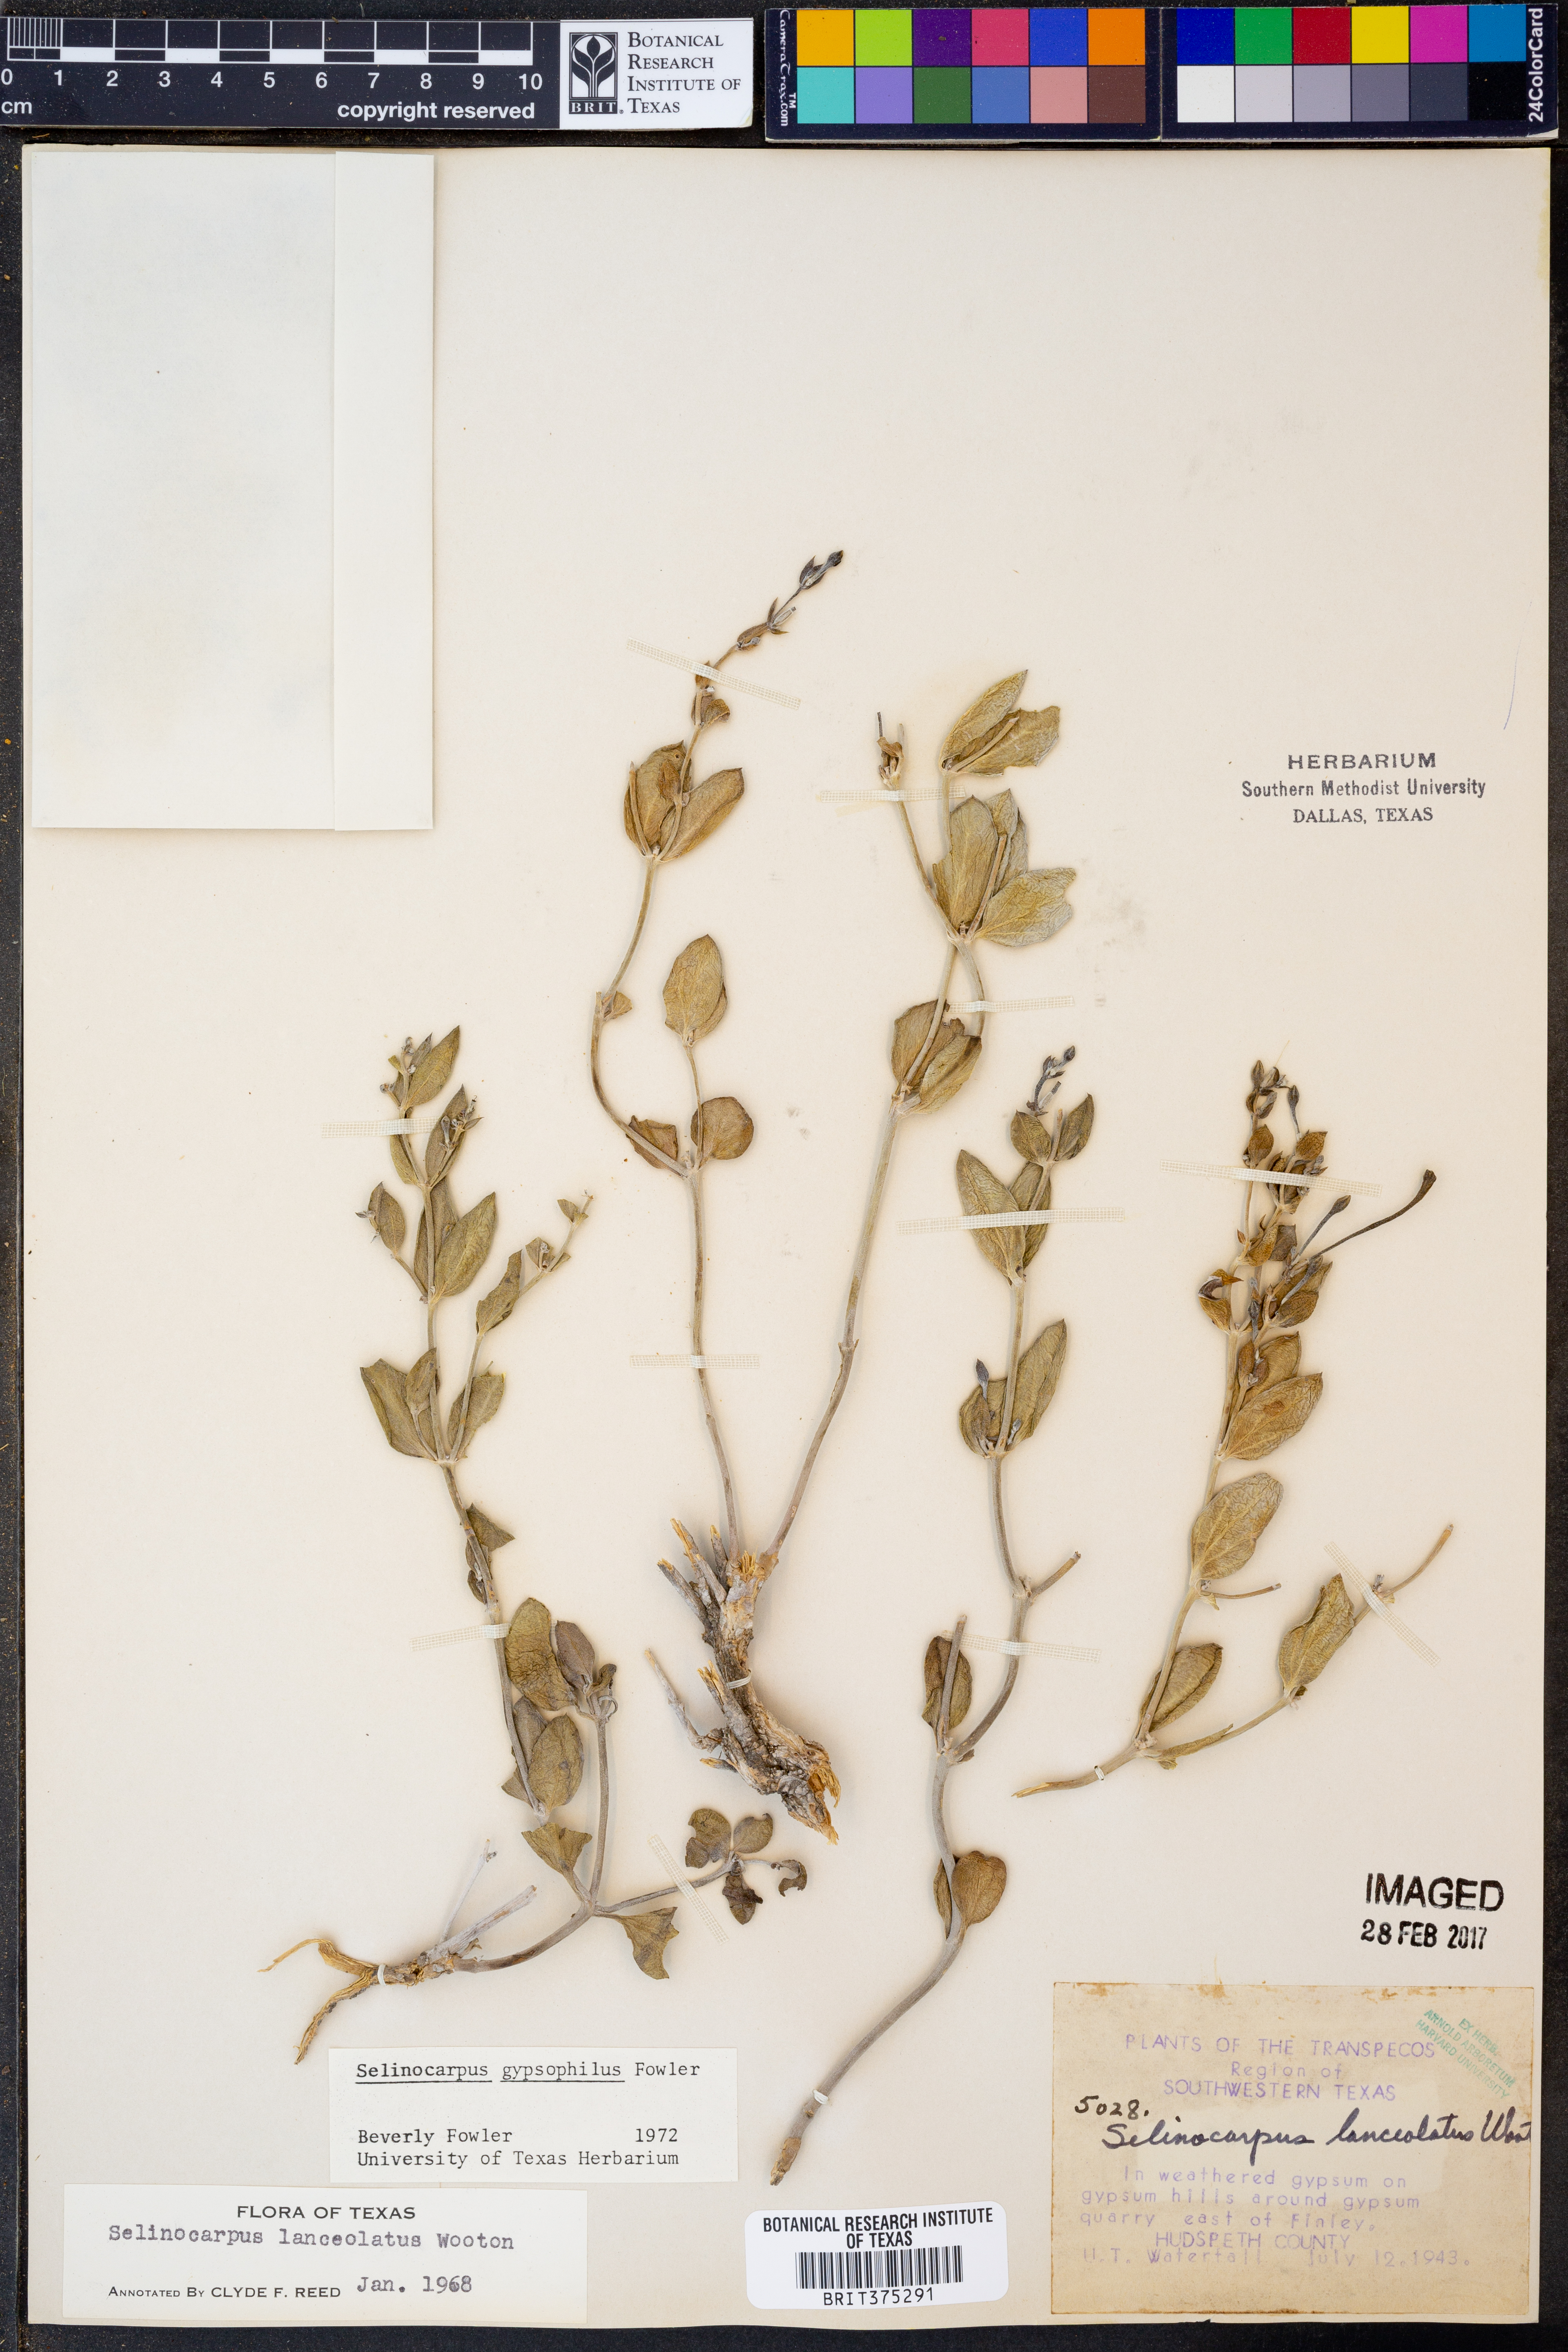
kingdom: Plantae
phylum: Tracheophyta
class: Magnoliopsida
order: Caryophyllales
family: Nyctaginaceae
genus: Acleisanthes
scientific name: Acleisanthes
